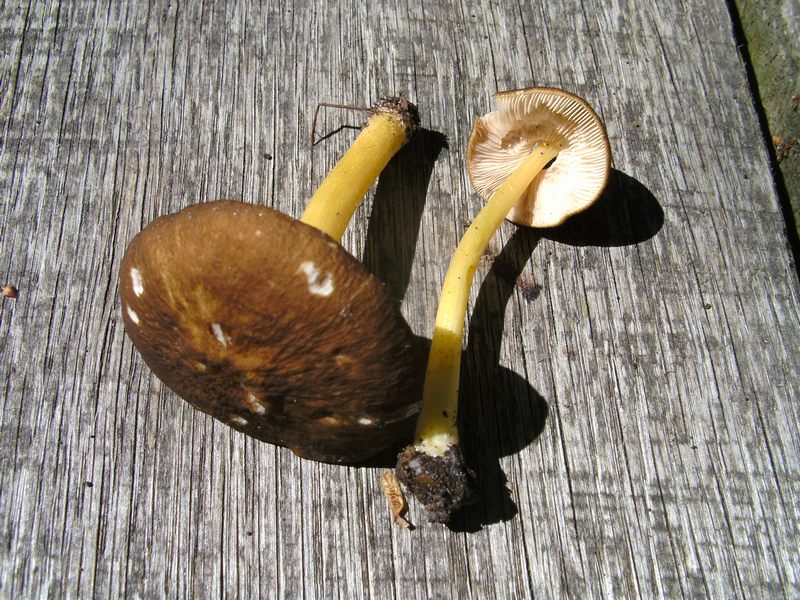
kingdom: Fungi
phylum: Basidiomycota
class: Agaricomycetes
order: Agaricales
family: Pluteaceae
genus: Pluteus
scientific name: Pluteus romellii
